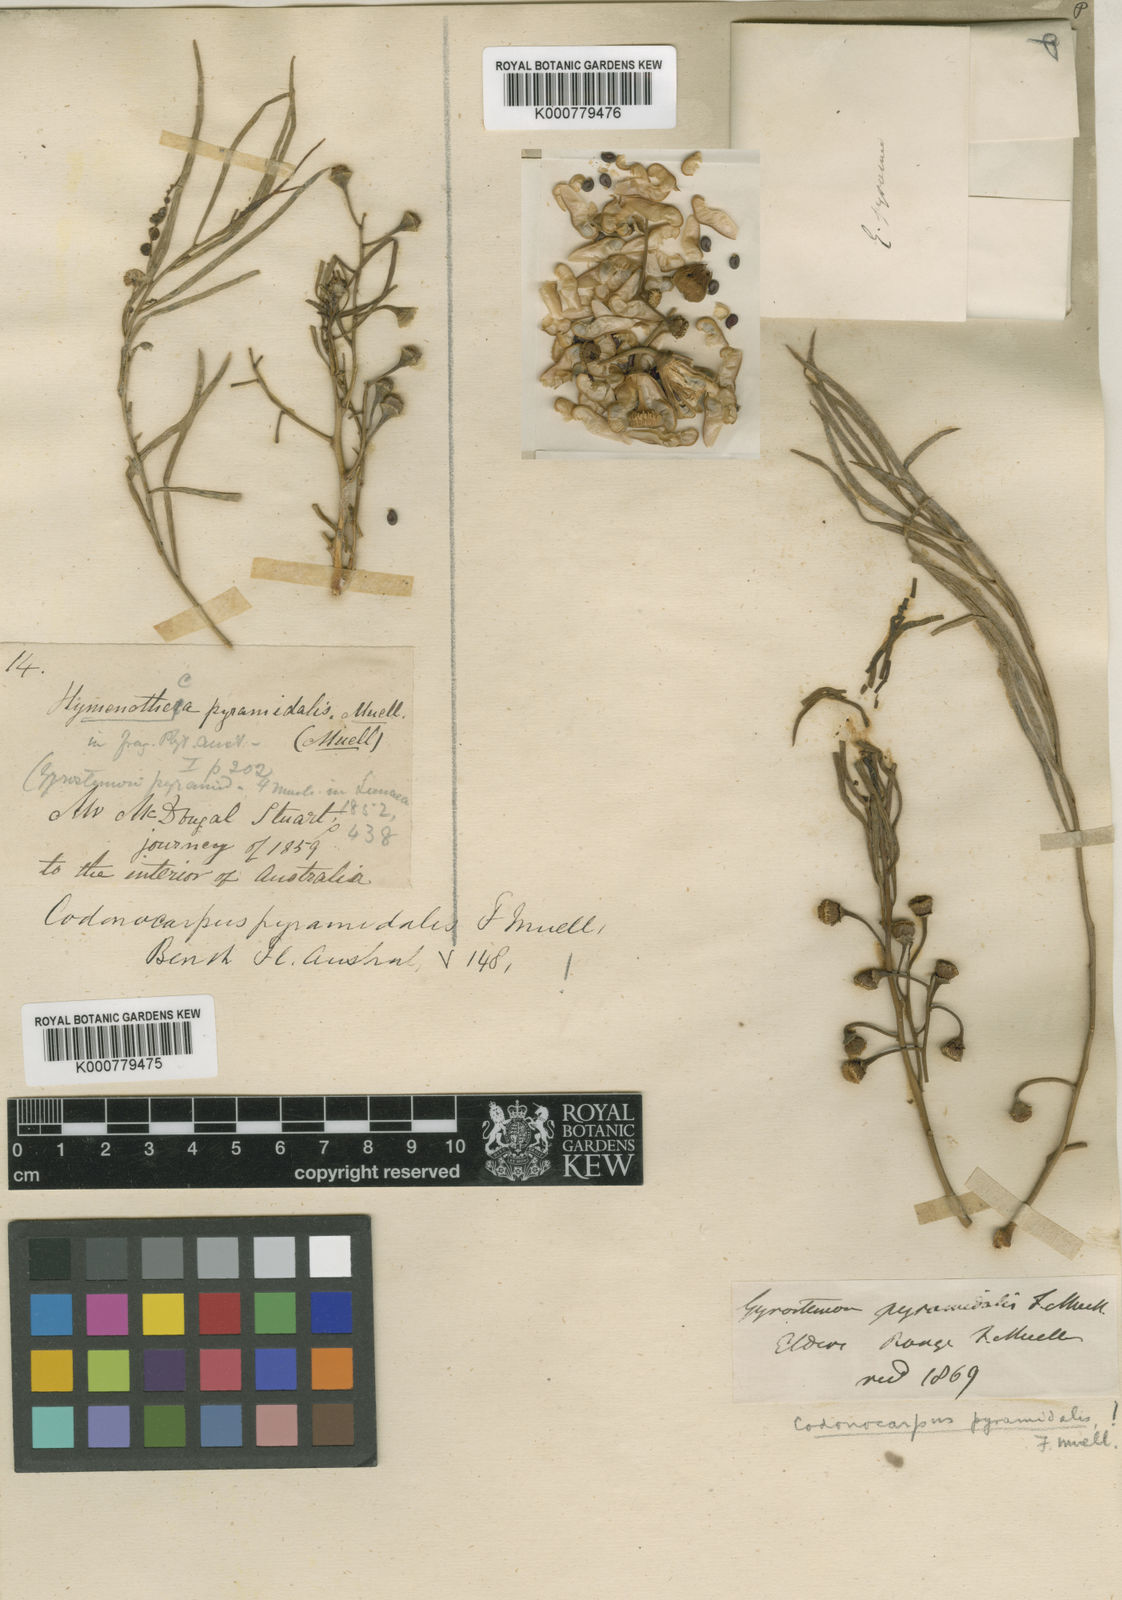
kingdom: Plantae
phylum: Tracheophyta
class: Magnoliopsida
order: Brassicales
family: Gyrostemonaceae
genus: Codonocarpus
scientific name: Codonocarpus pyramidalis
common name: Camel poison
